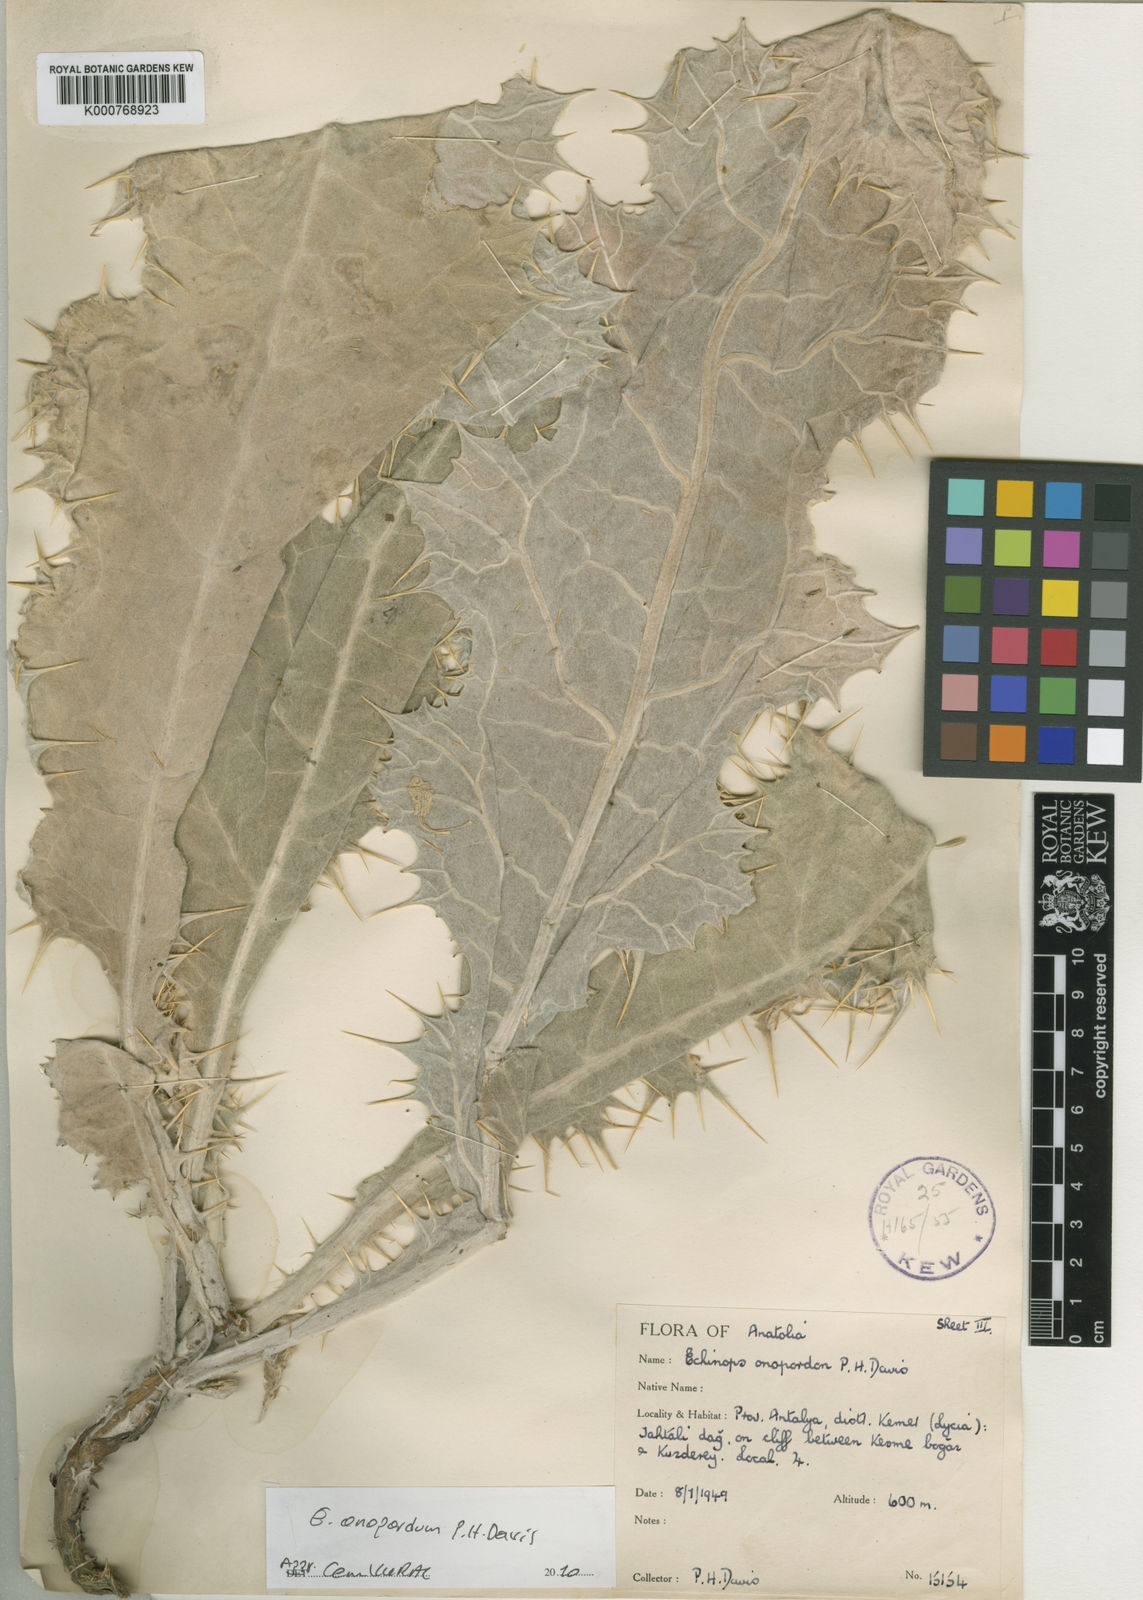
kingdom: Plantae
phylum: Tracheophyta
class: Magnoliopsida
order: Asterales
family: Asteraceae
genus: Echinops
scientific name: Echinops onopordum
